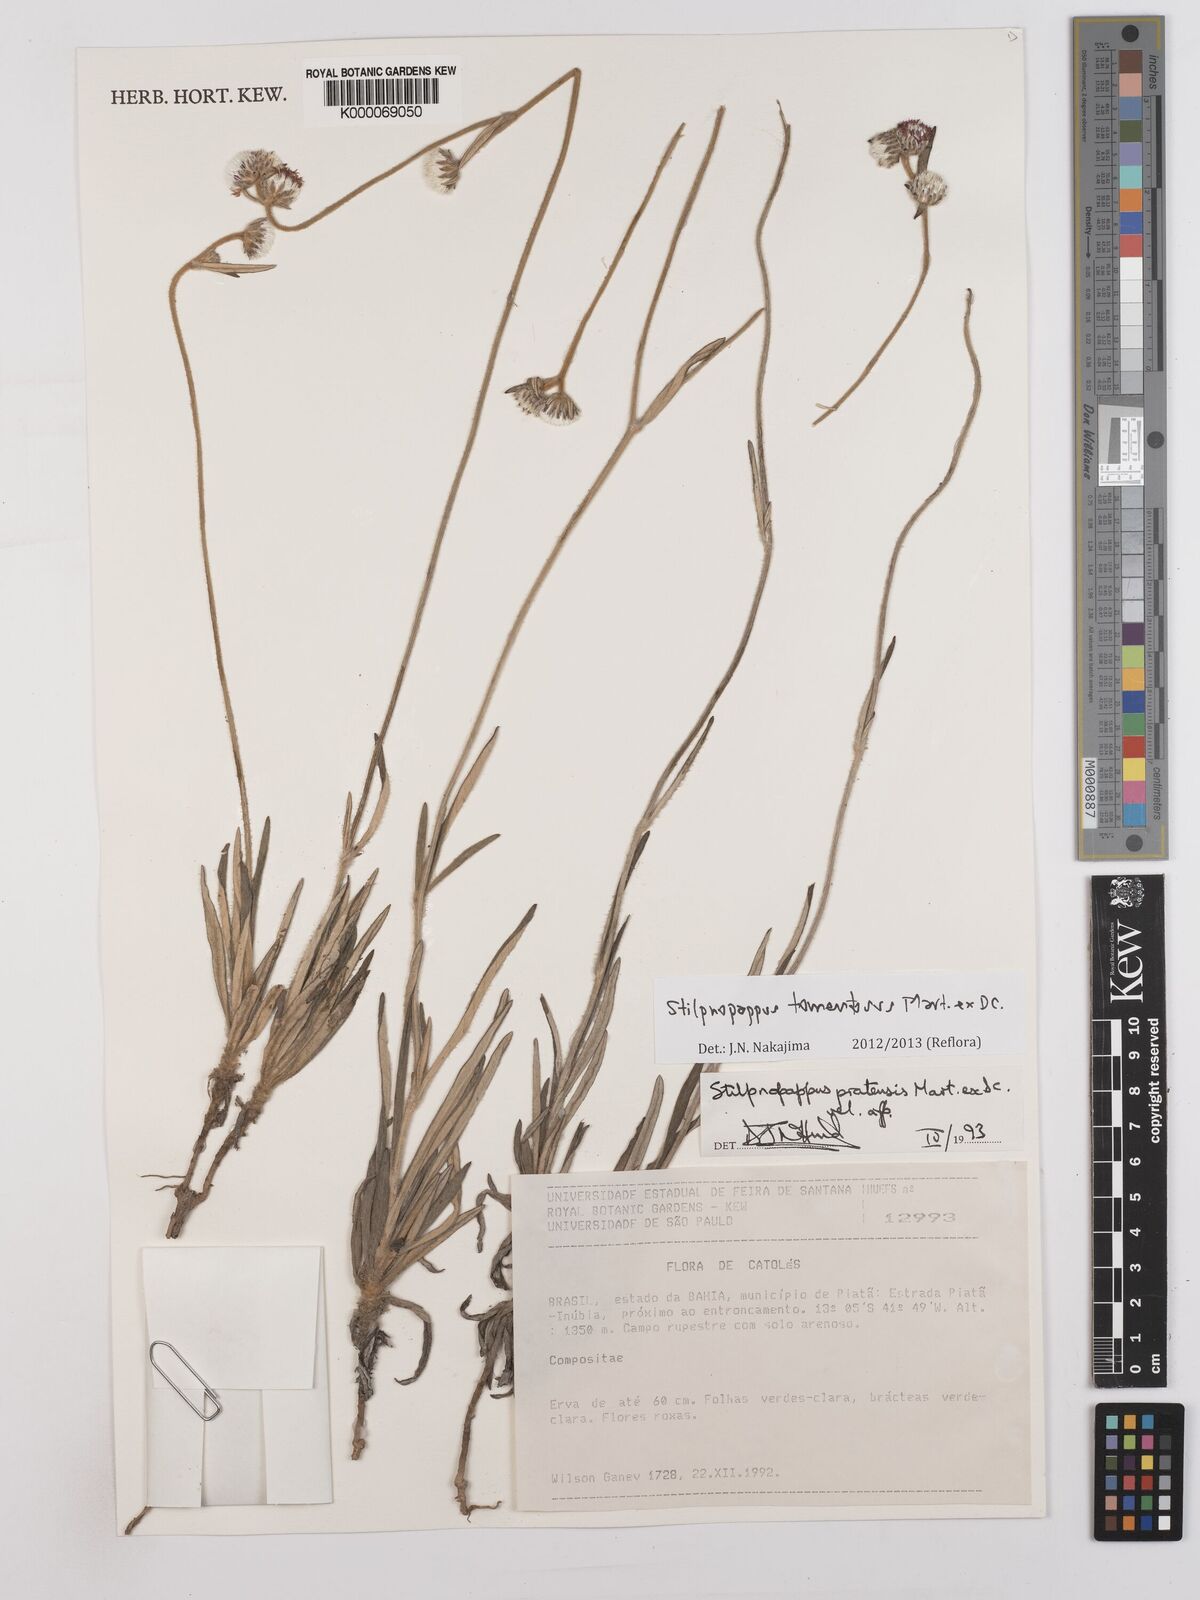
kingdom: Plantae
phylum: Tracheophyta
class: Magnoliopsida
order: Asterales
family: Asteraceae
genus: Stilpnopappus
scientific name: Stilpnopappus tomentosus
